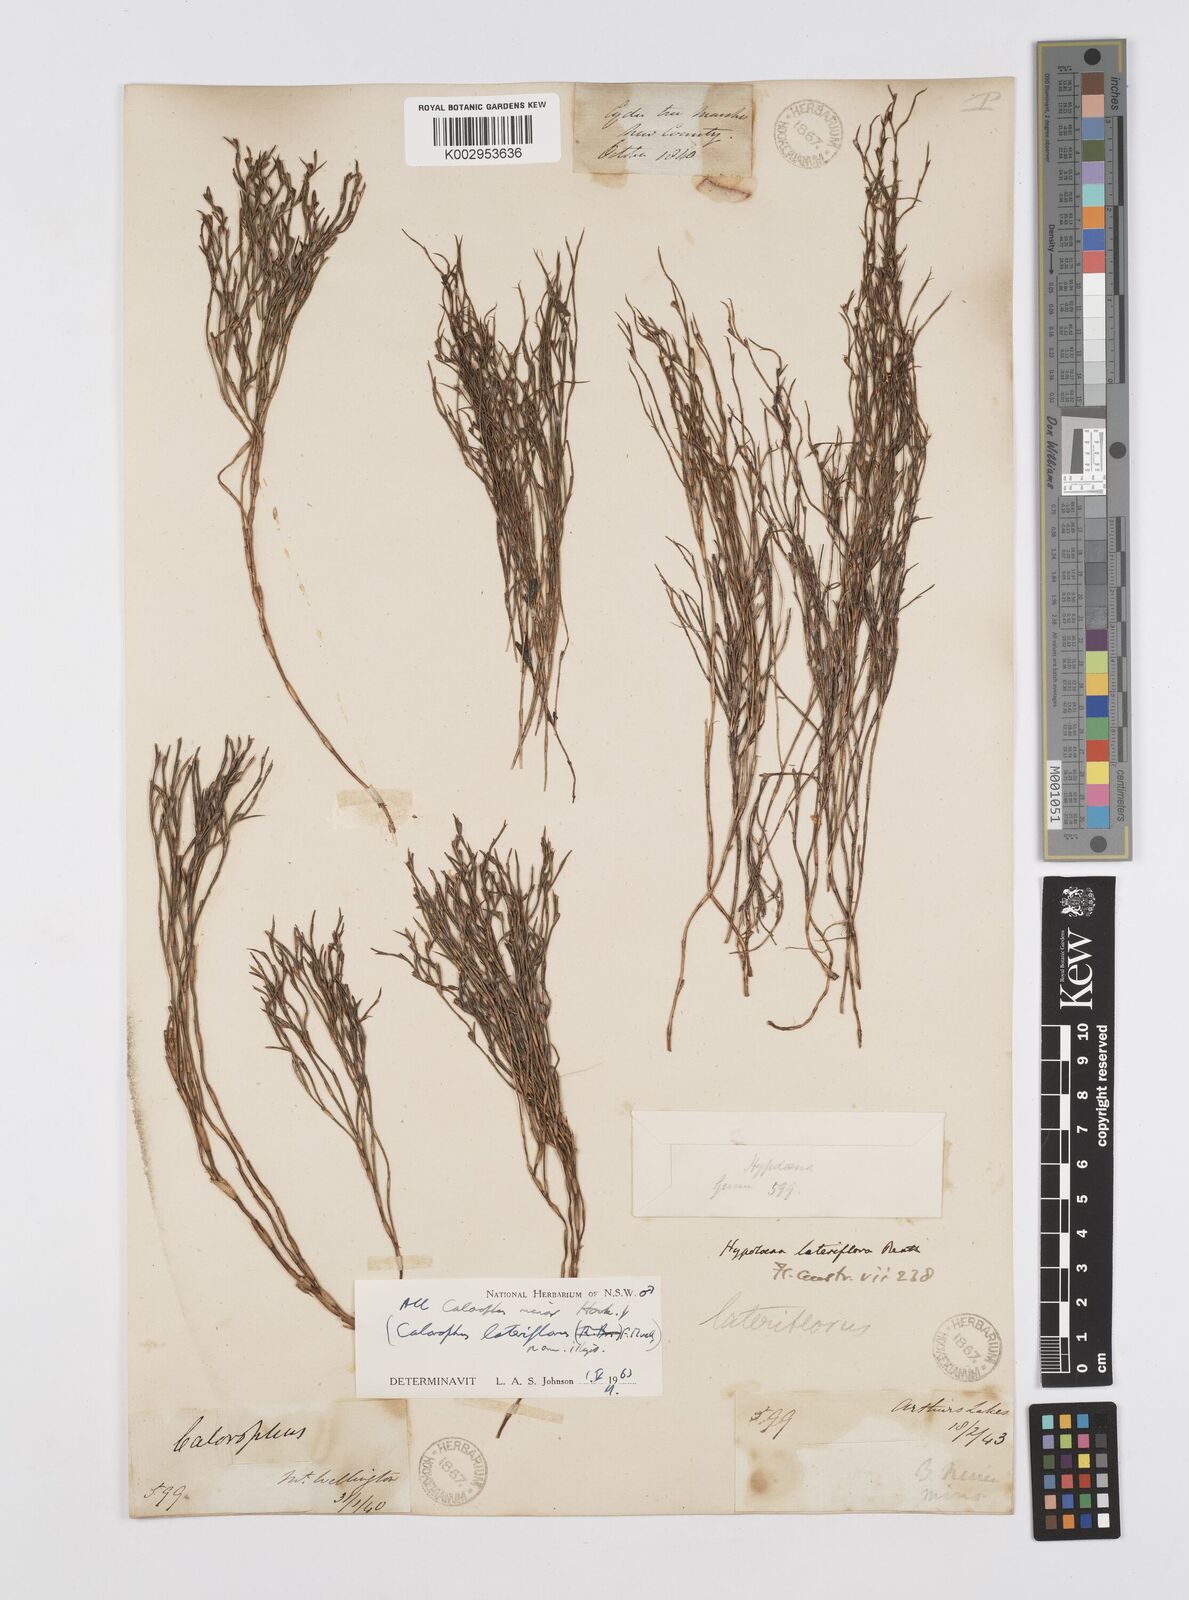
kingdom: Plantae
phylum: Tracheophyta
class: Liliopsida
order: Poales
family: Restionaceae
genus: Empodisma
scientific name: Empodisma minus
